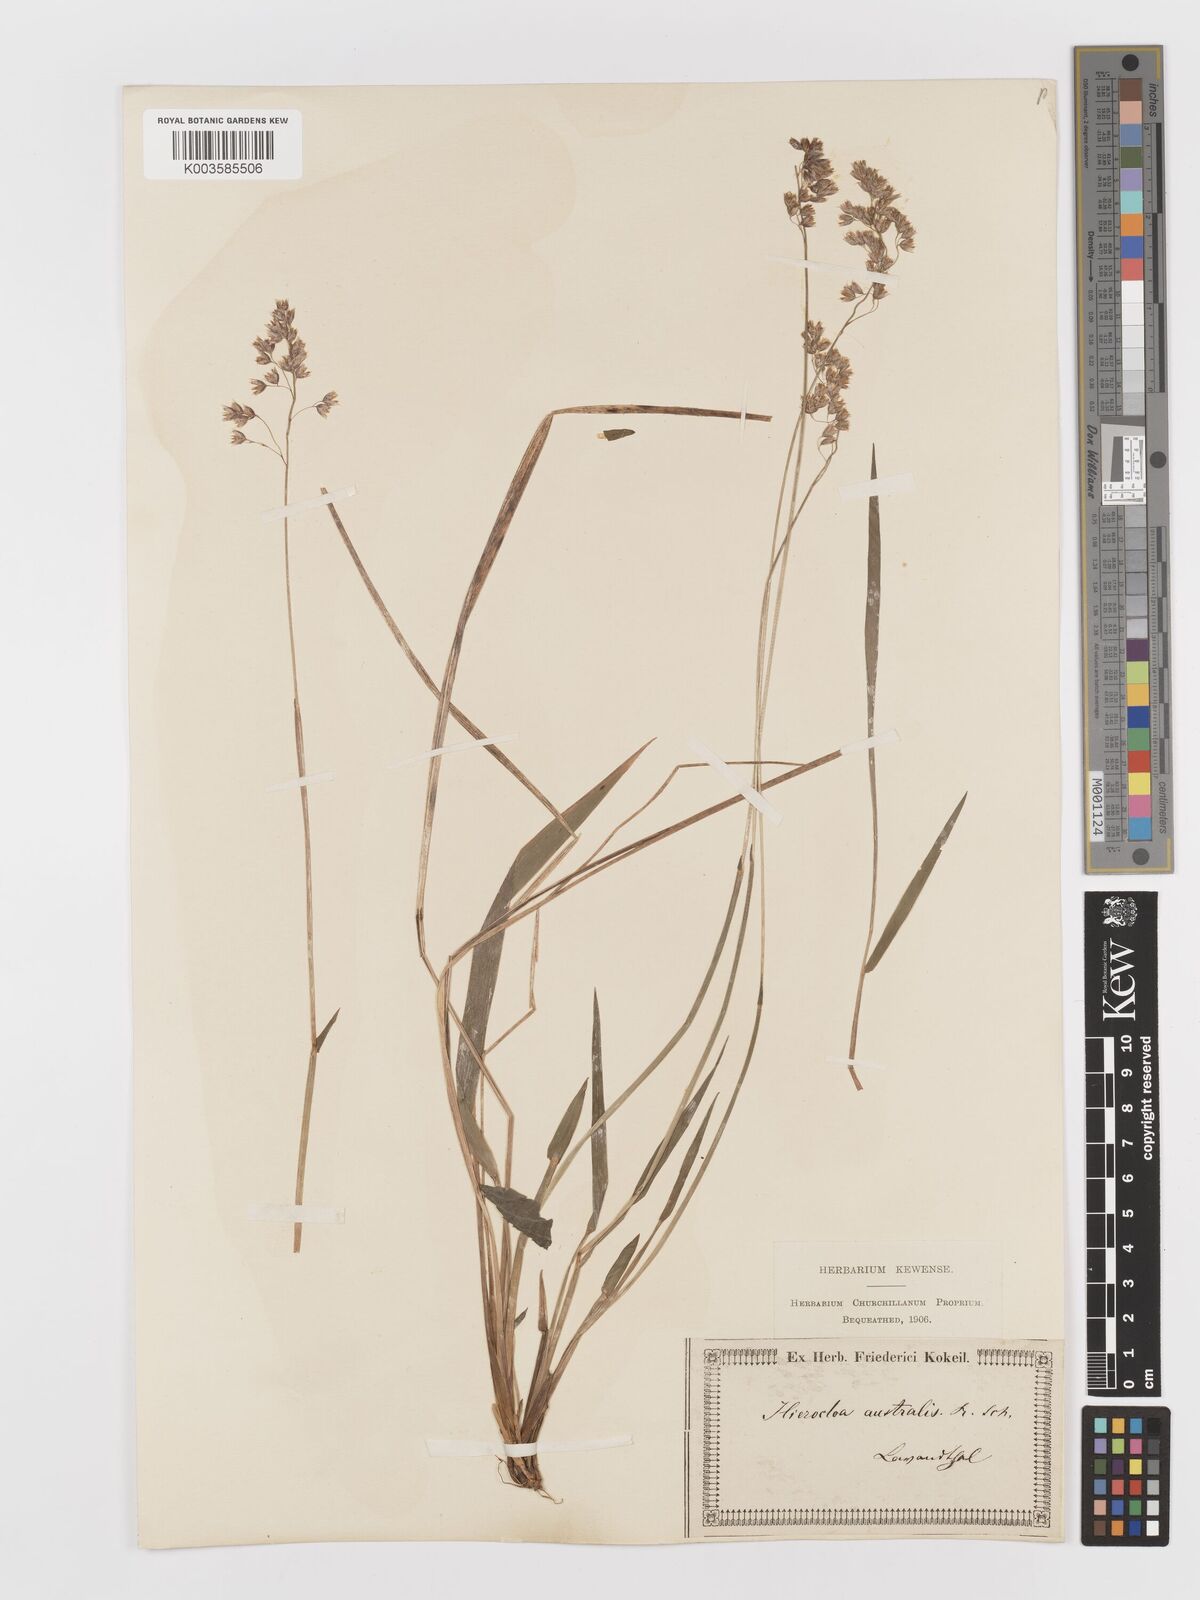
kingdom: Plantae
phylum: Tracheophyta
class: Liliopsida
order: Poales
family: Poaceae
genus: Anthoxanthum
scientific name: Anthoxanthum australe
